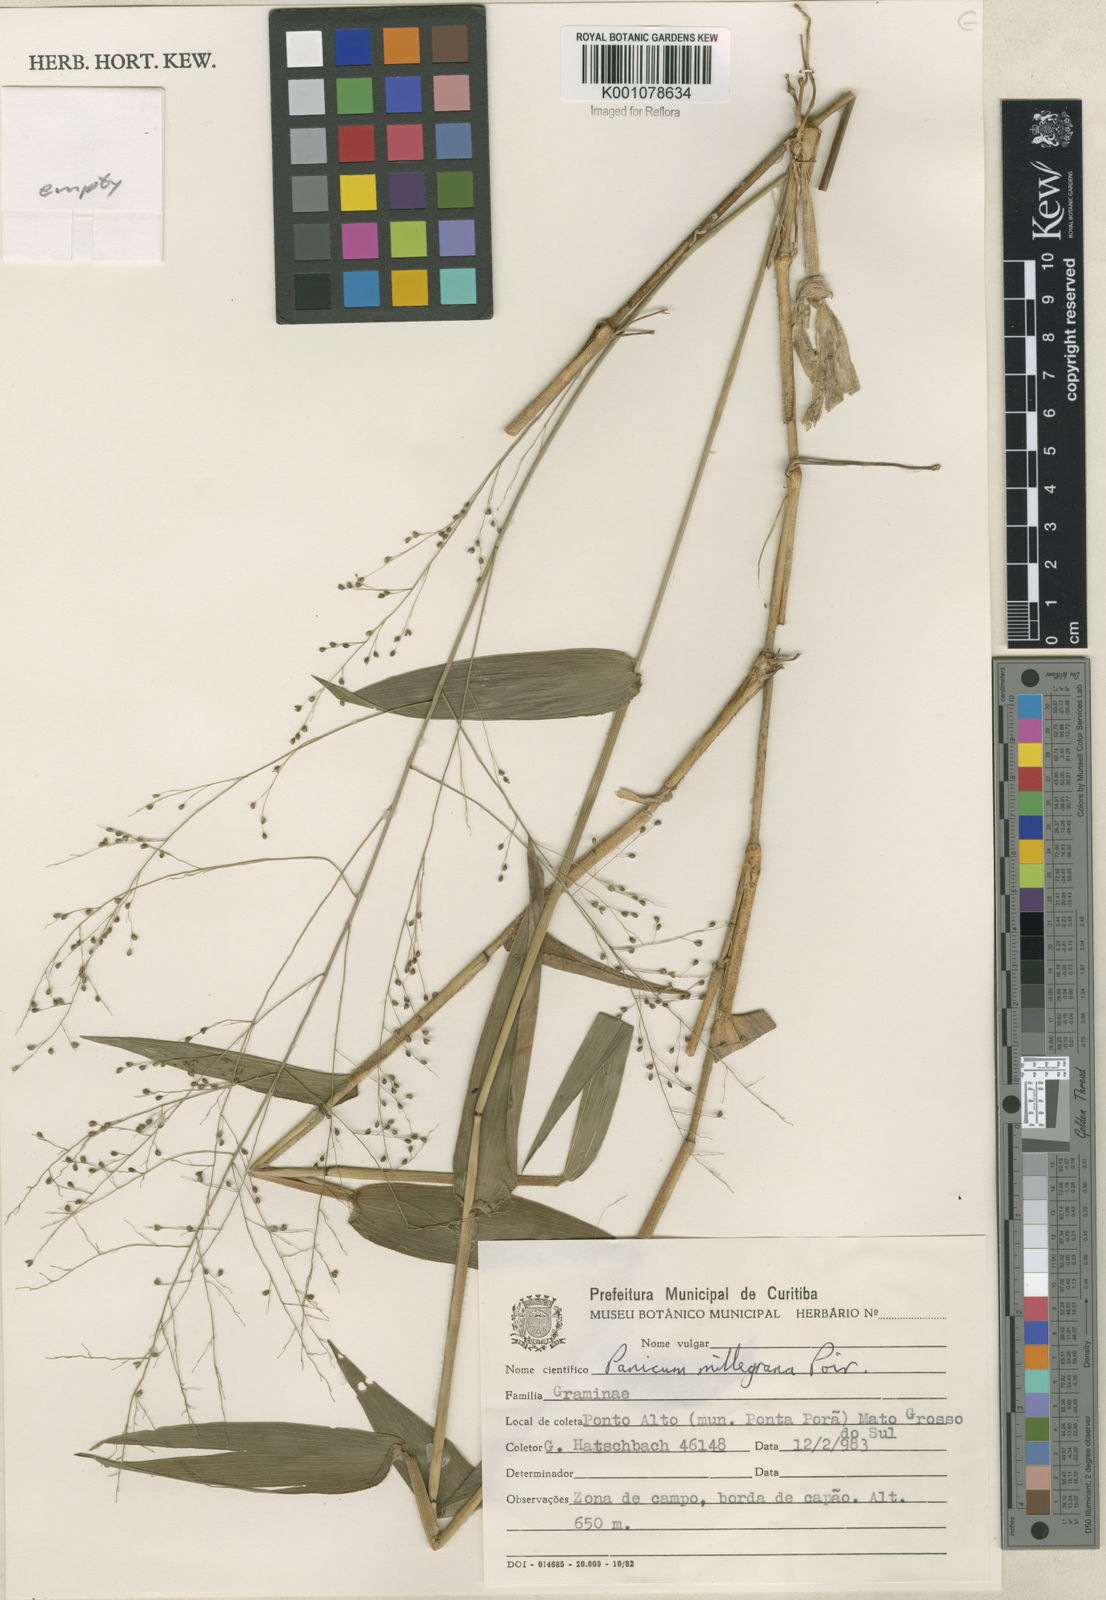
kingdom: Plantae
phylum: Tracheophyta
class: Liliopsida
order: Poales
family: Poaceae
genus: Panicum
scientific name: Panicum millegrana
